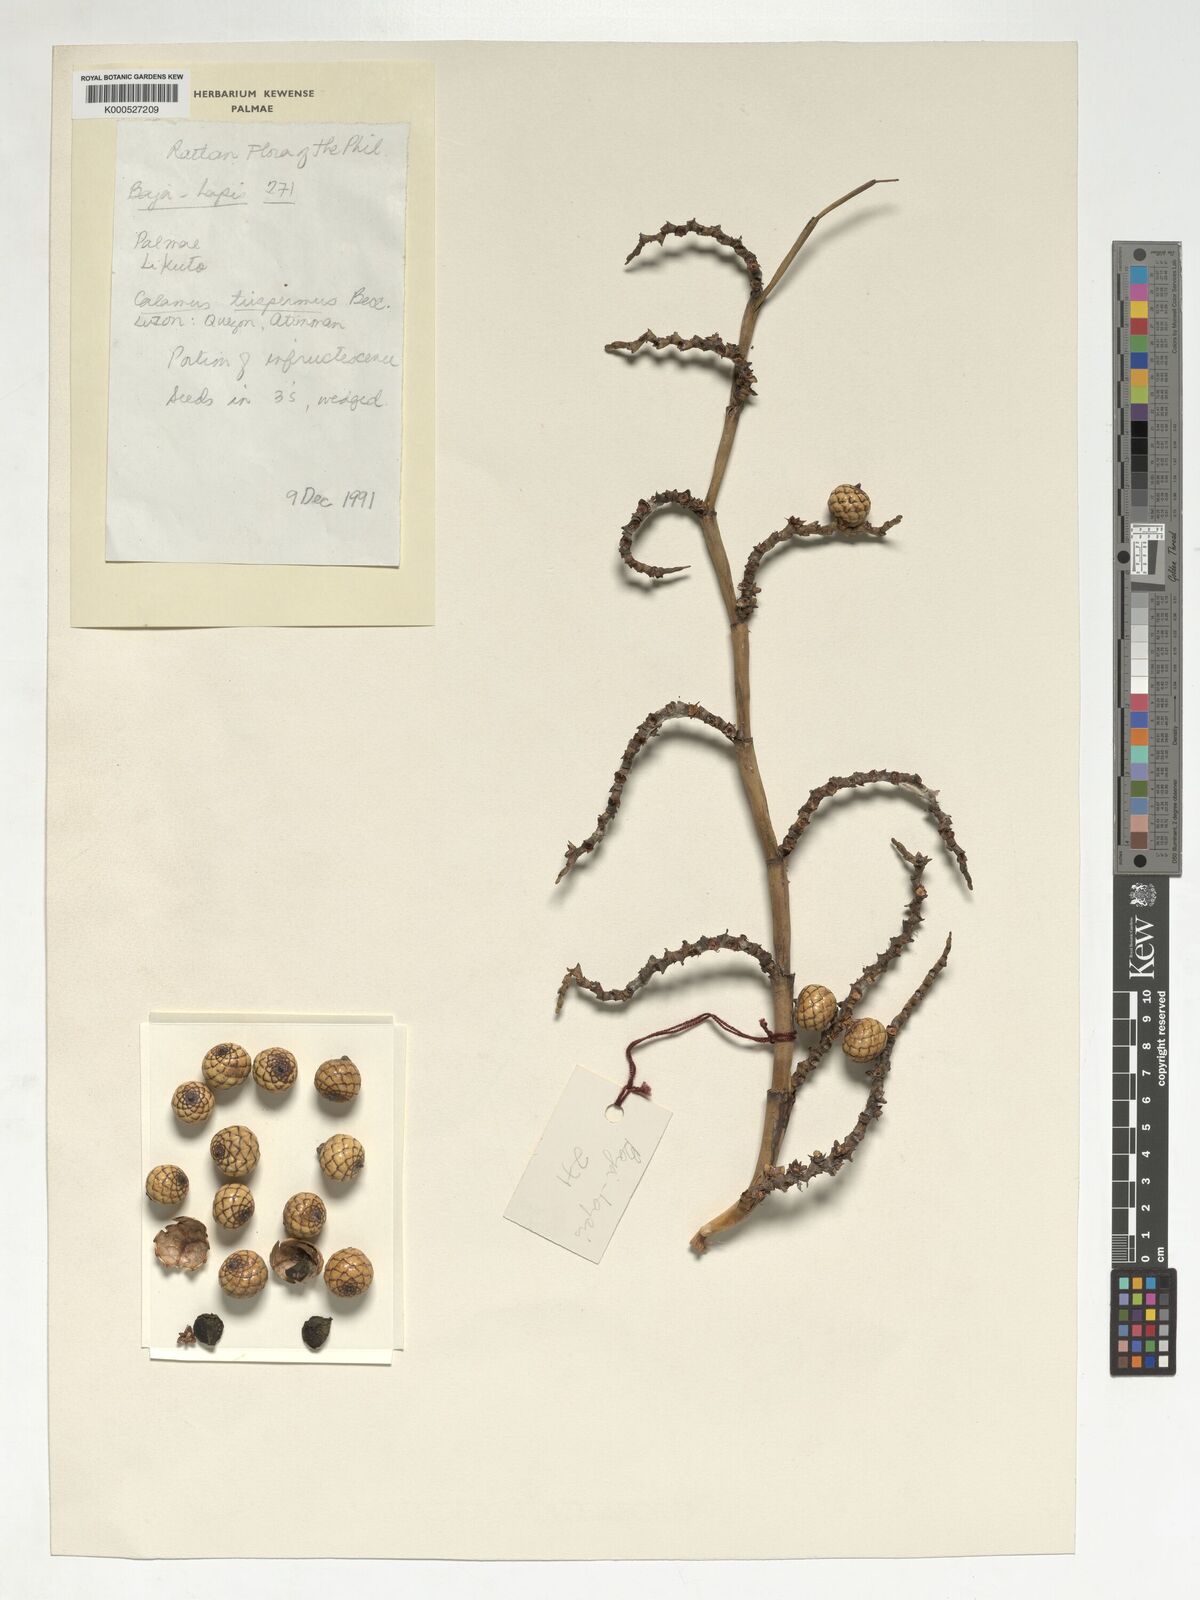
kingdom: Plantae
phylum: Tracheophyta
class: Liliopsida
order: Arecales
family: Arecaceae
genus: Calamus
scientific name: Calamus manillensis
